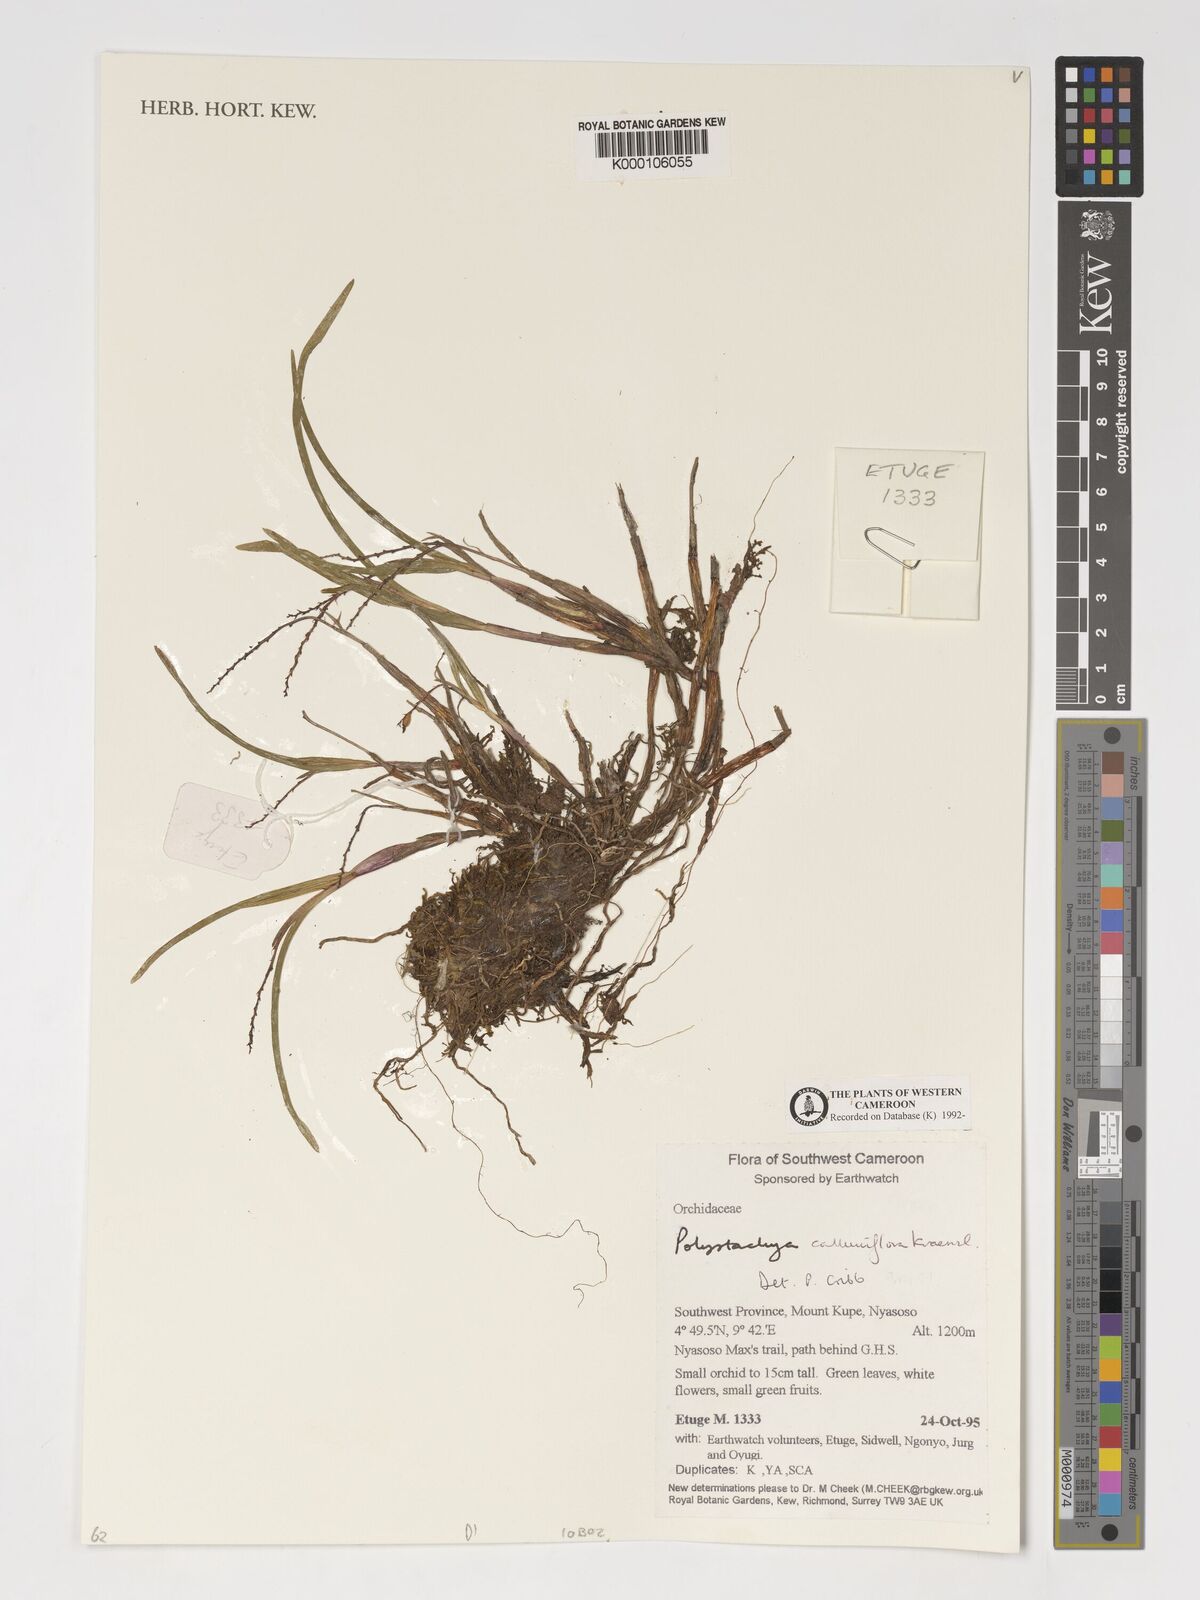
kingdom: Plantae
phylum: Tracheophyta
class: Liliopsida
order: Asparagales
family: Orchidaceae
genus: Polystachya
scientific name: Polystachya calluniflora
